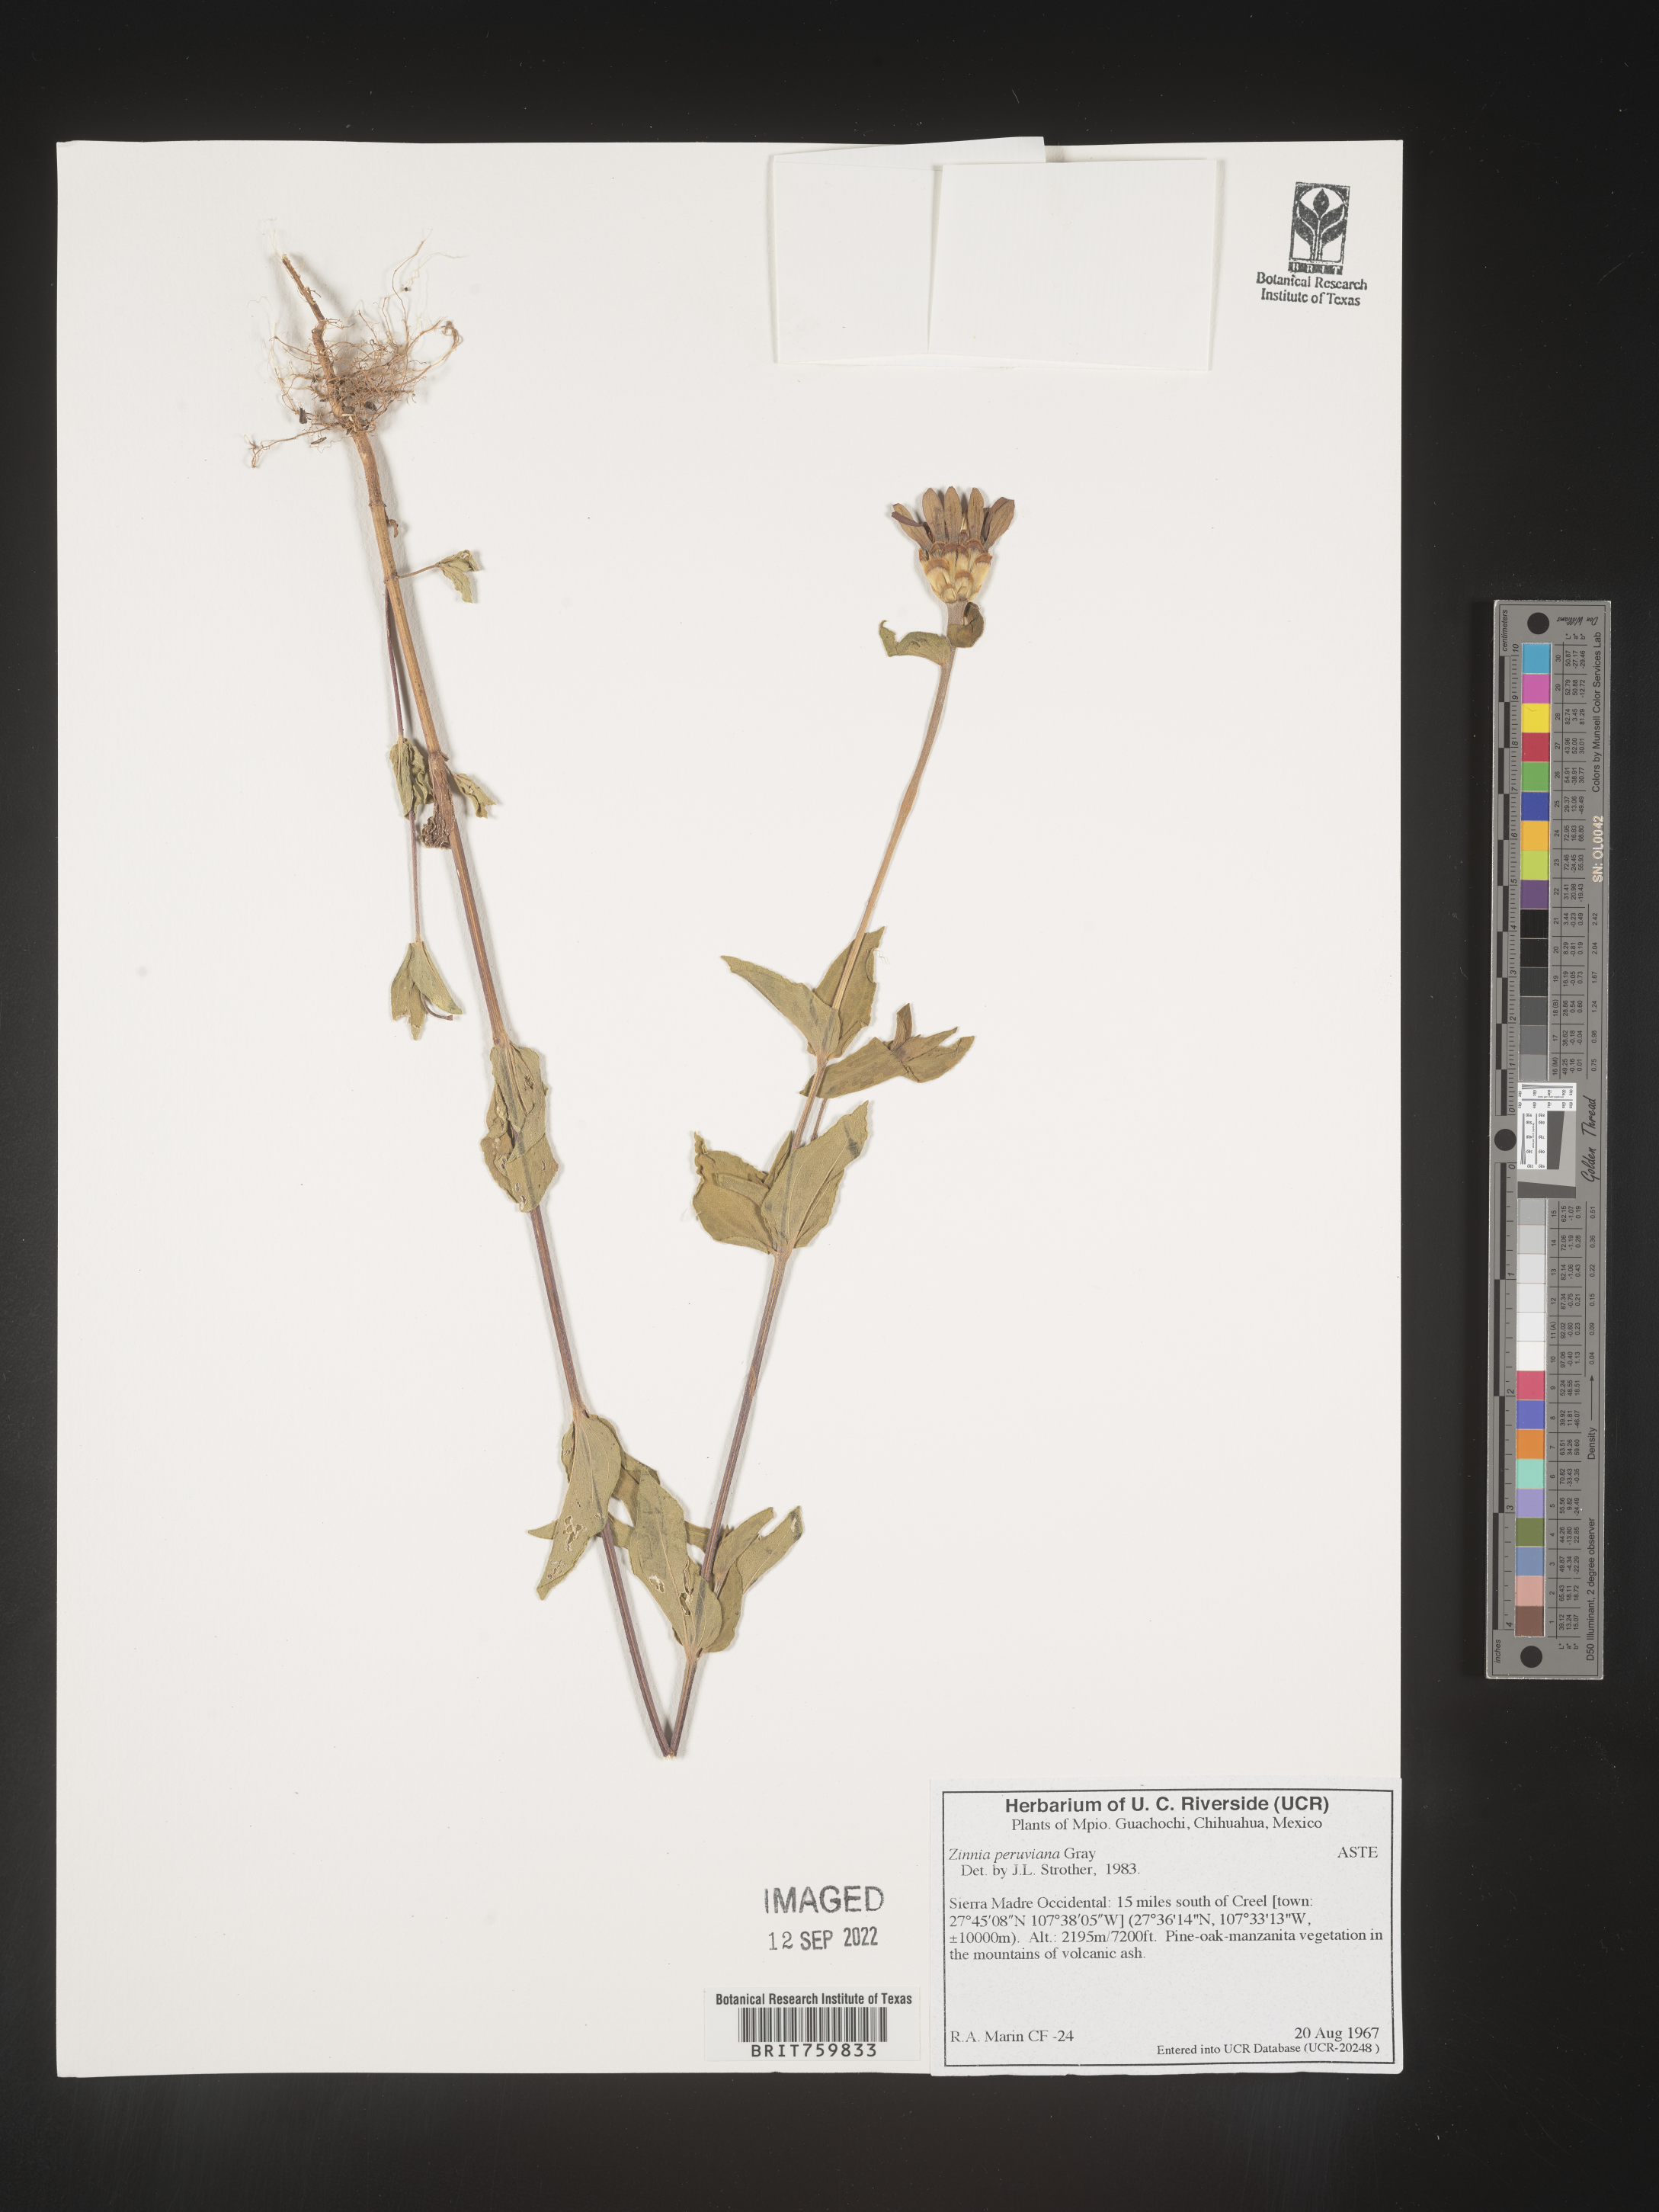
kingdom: Plantae
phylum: Tracheophyta
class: Magnoliopsida
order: Asterales
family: Asteraceae
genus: Zinnia
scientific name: Zinnia
